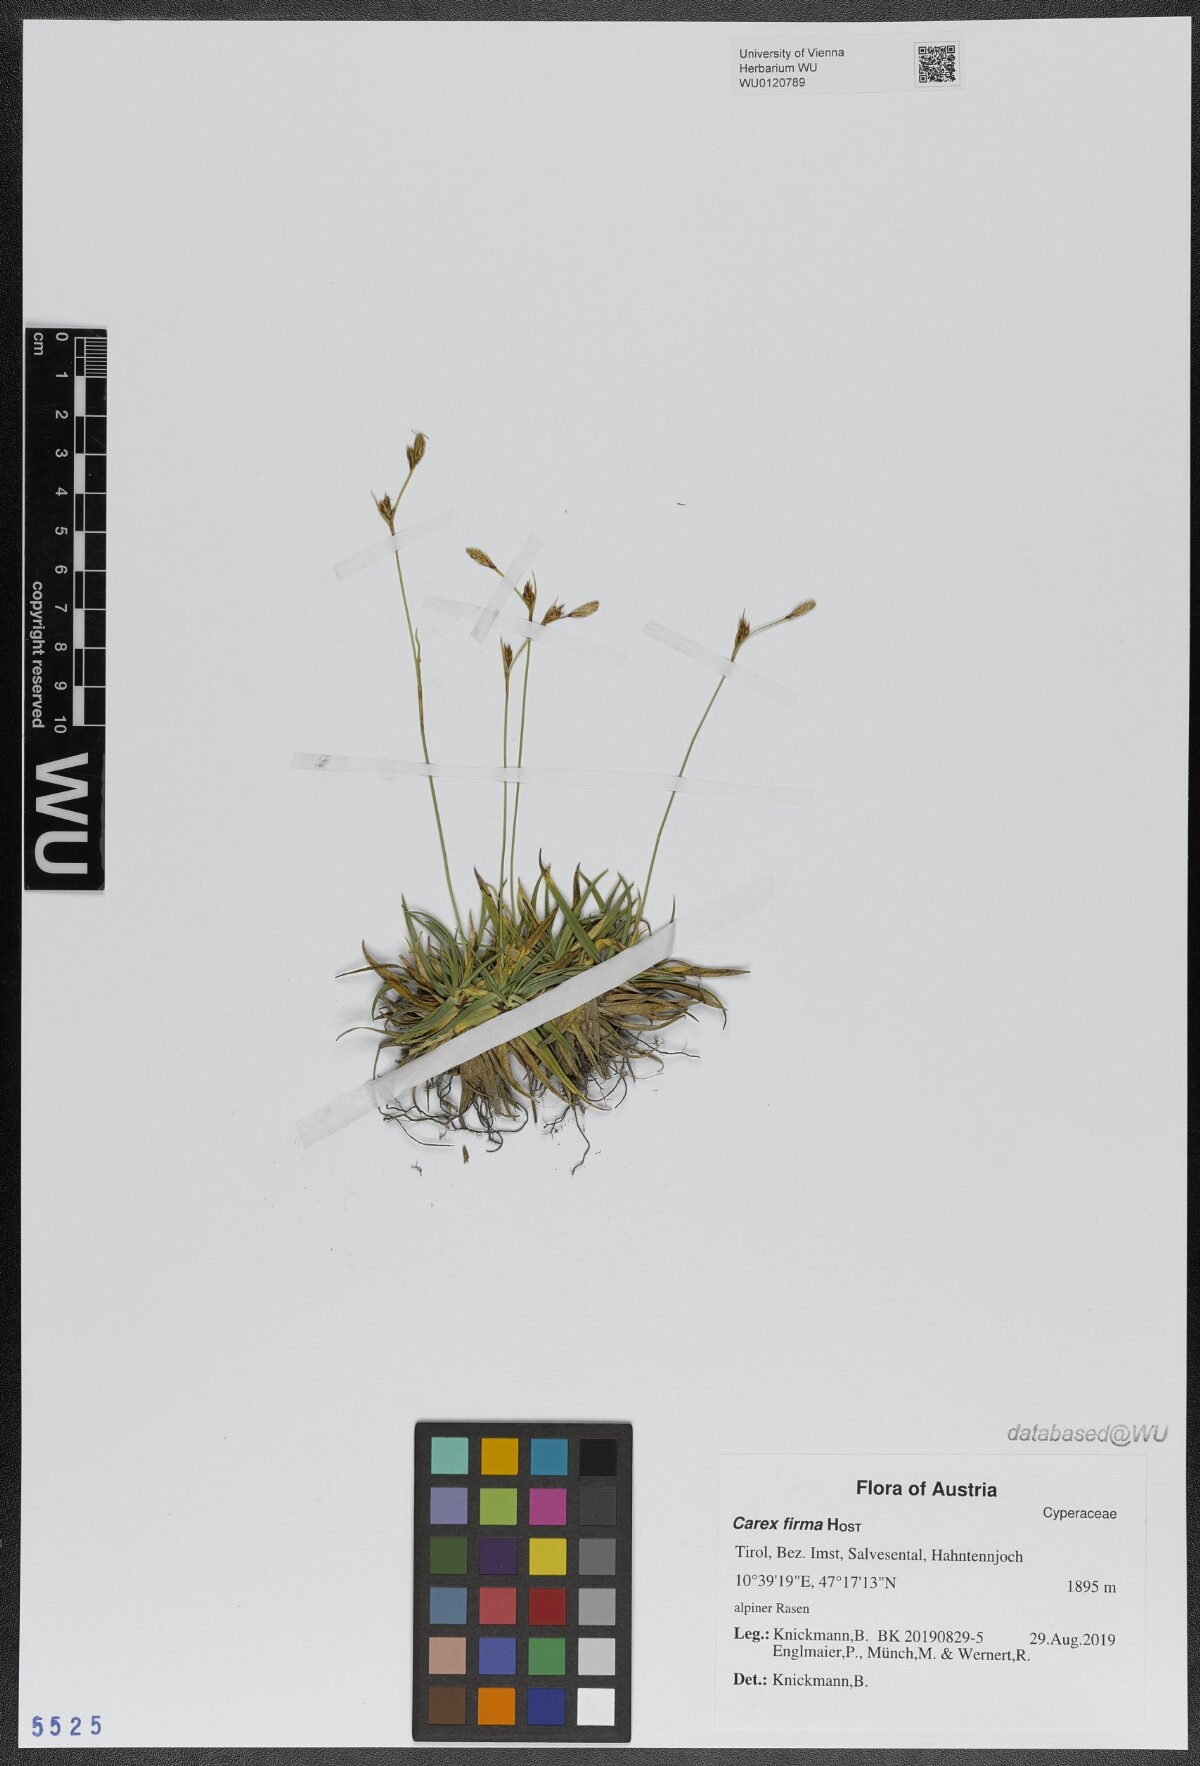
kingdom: Plantae
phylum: Tracheophyta
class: Liliopsida
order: Poales
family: Cyperaceae
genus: Carex
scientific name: Carex firma
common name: Dwarf pillow sedge
